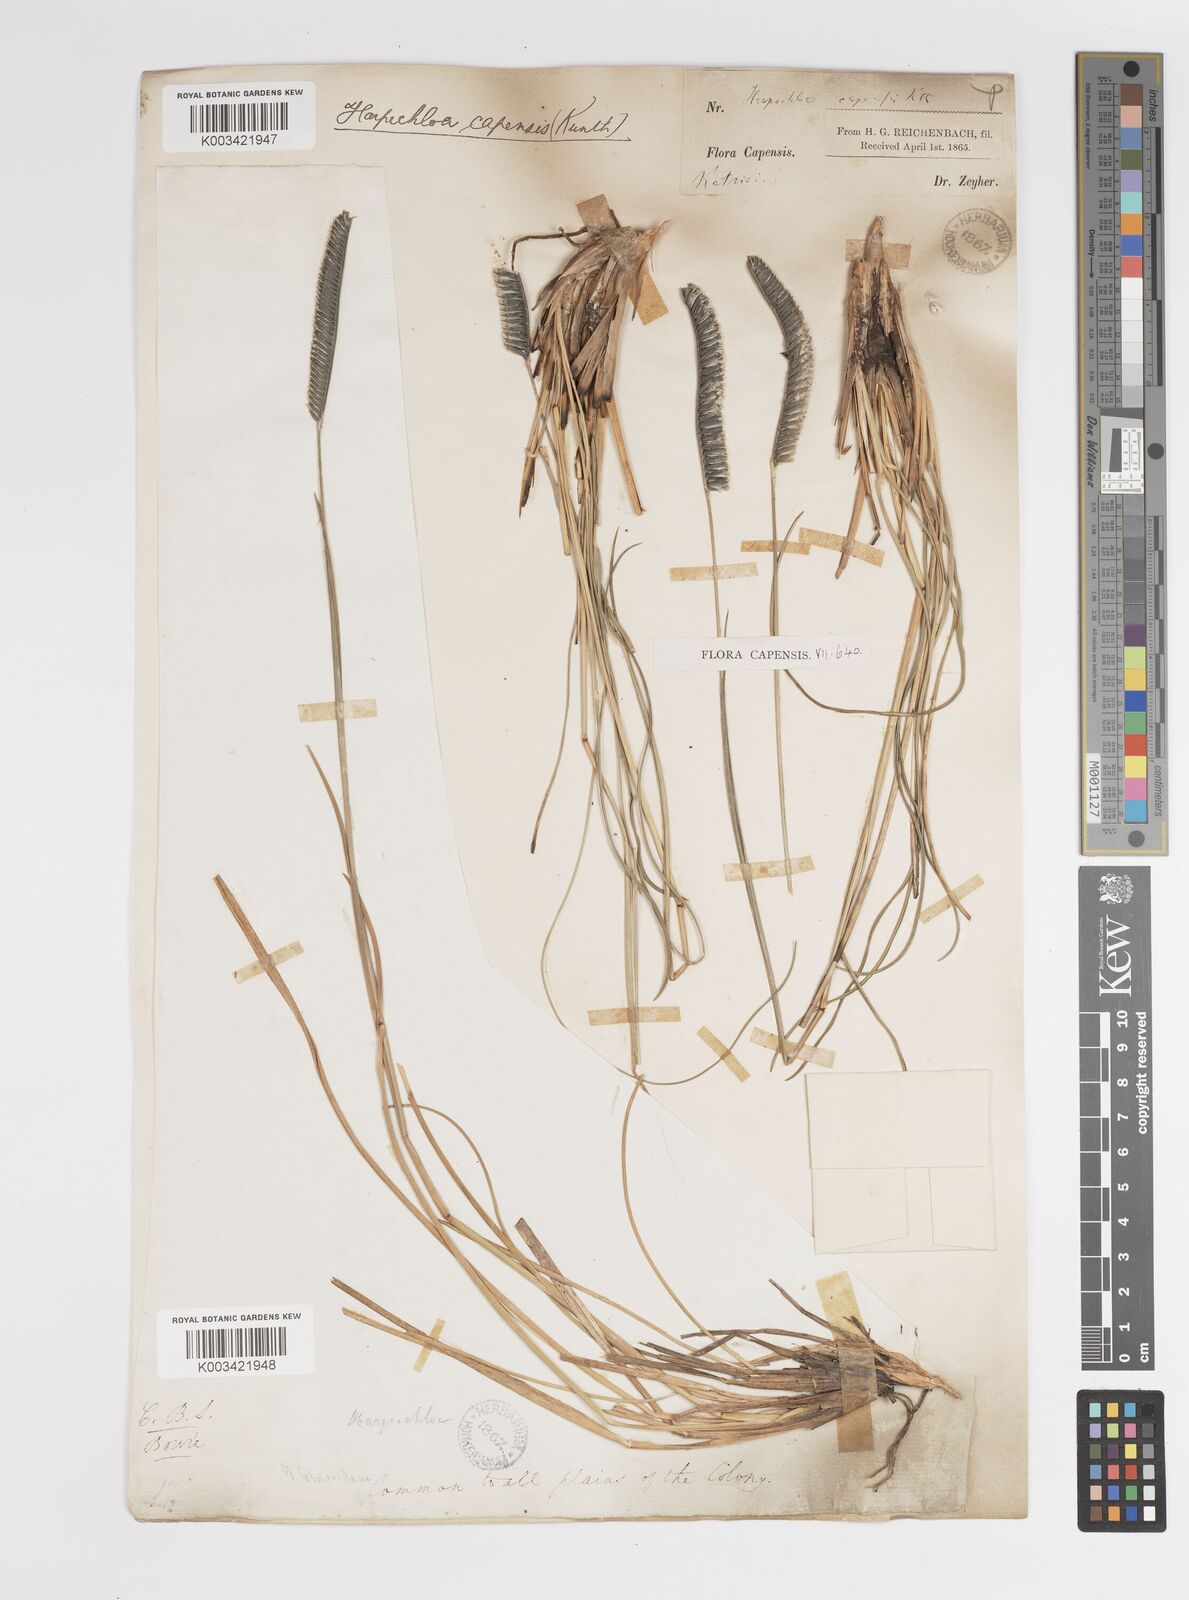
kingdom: Plantae
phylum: Tracheophyta
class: Liliopsida
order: Poales
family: Poaceae
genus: Harpochloa
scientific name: Harpochloa falx
